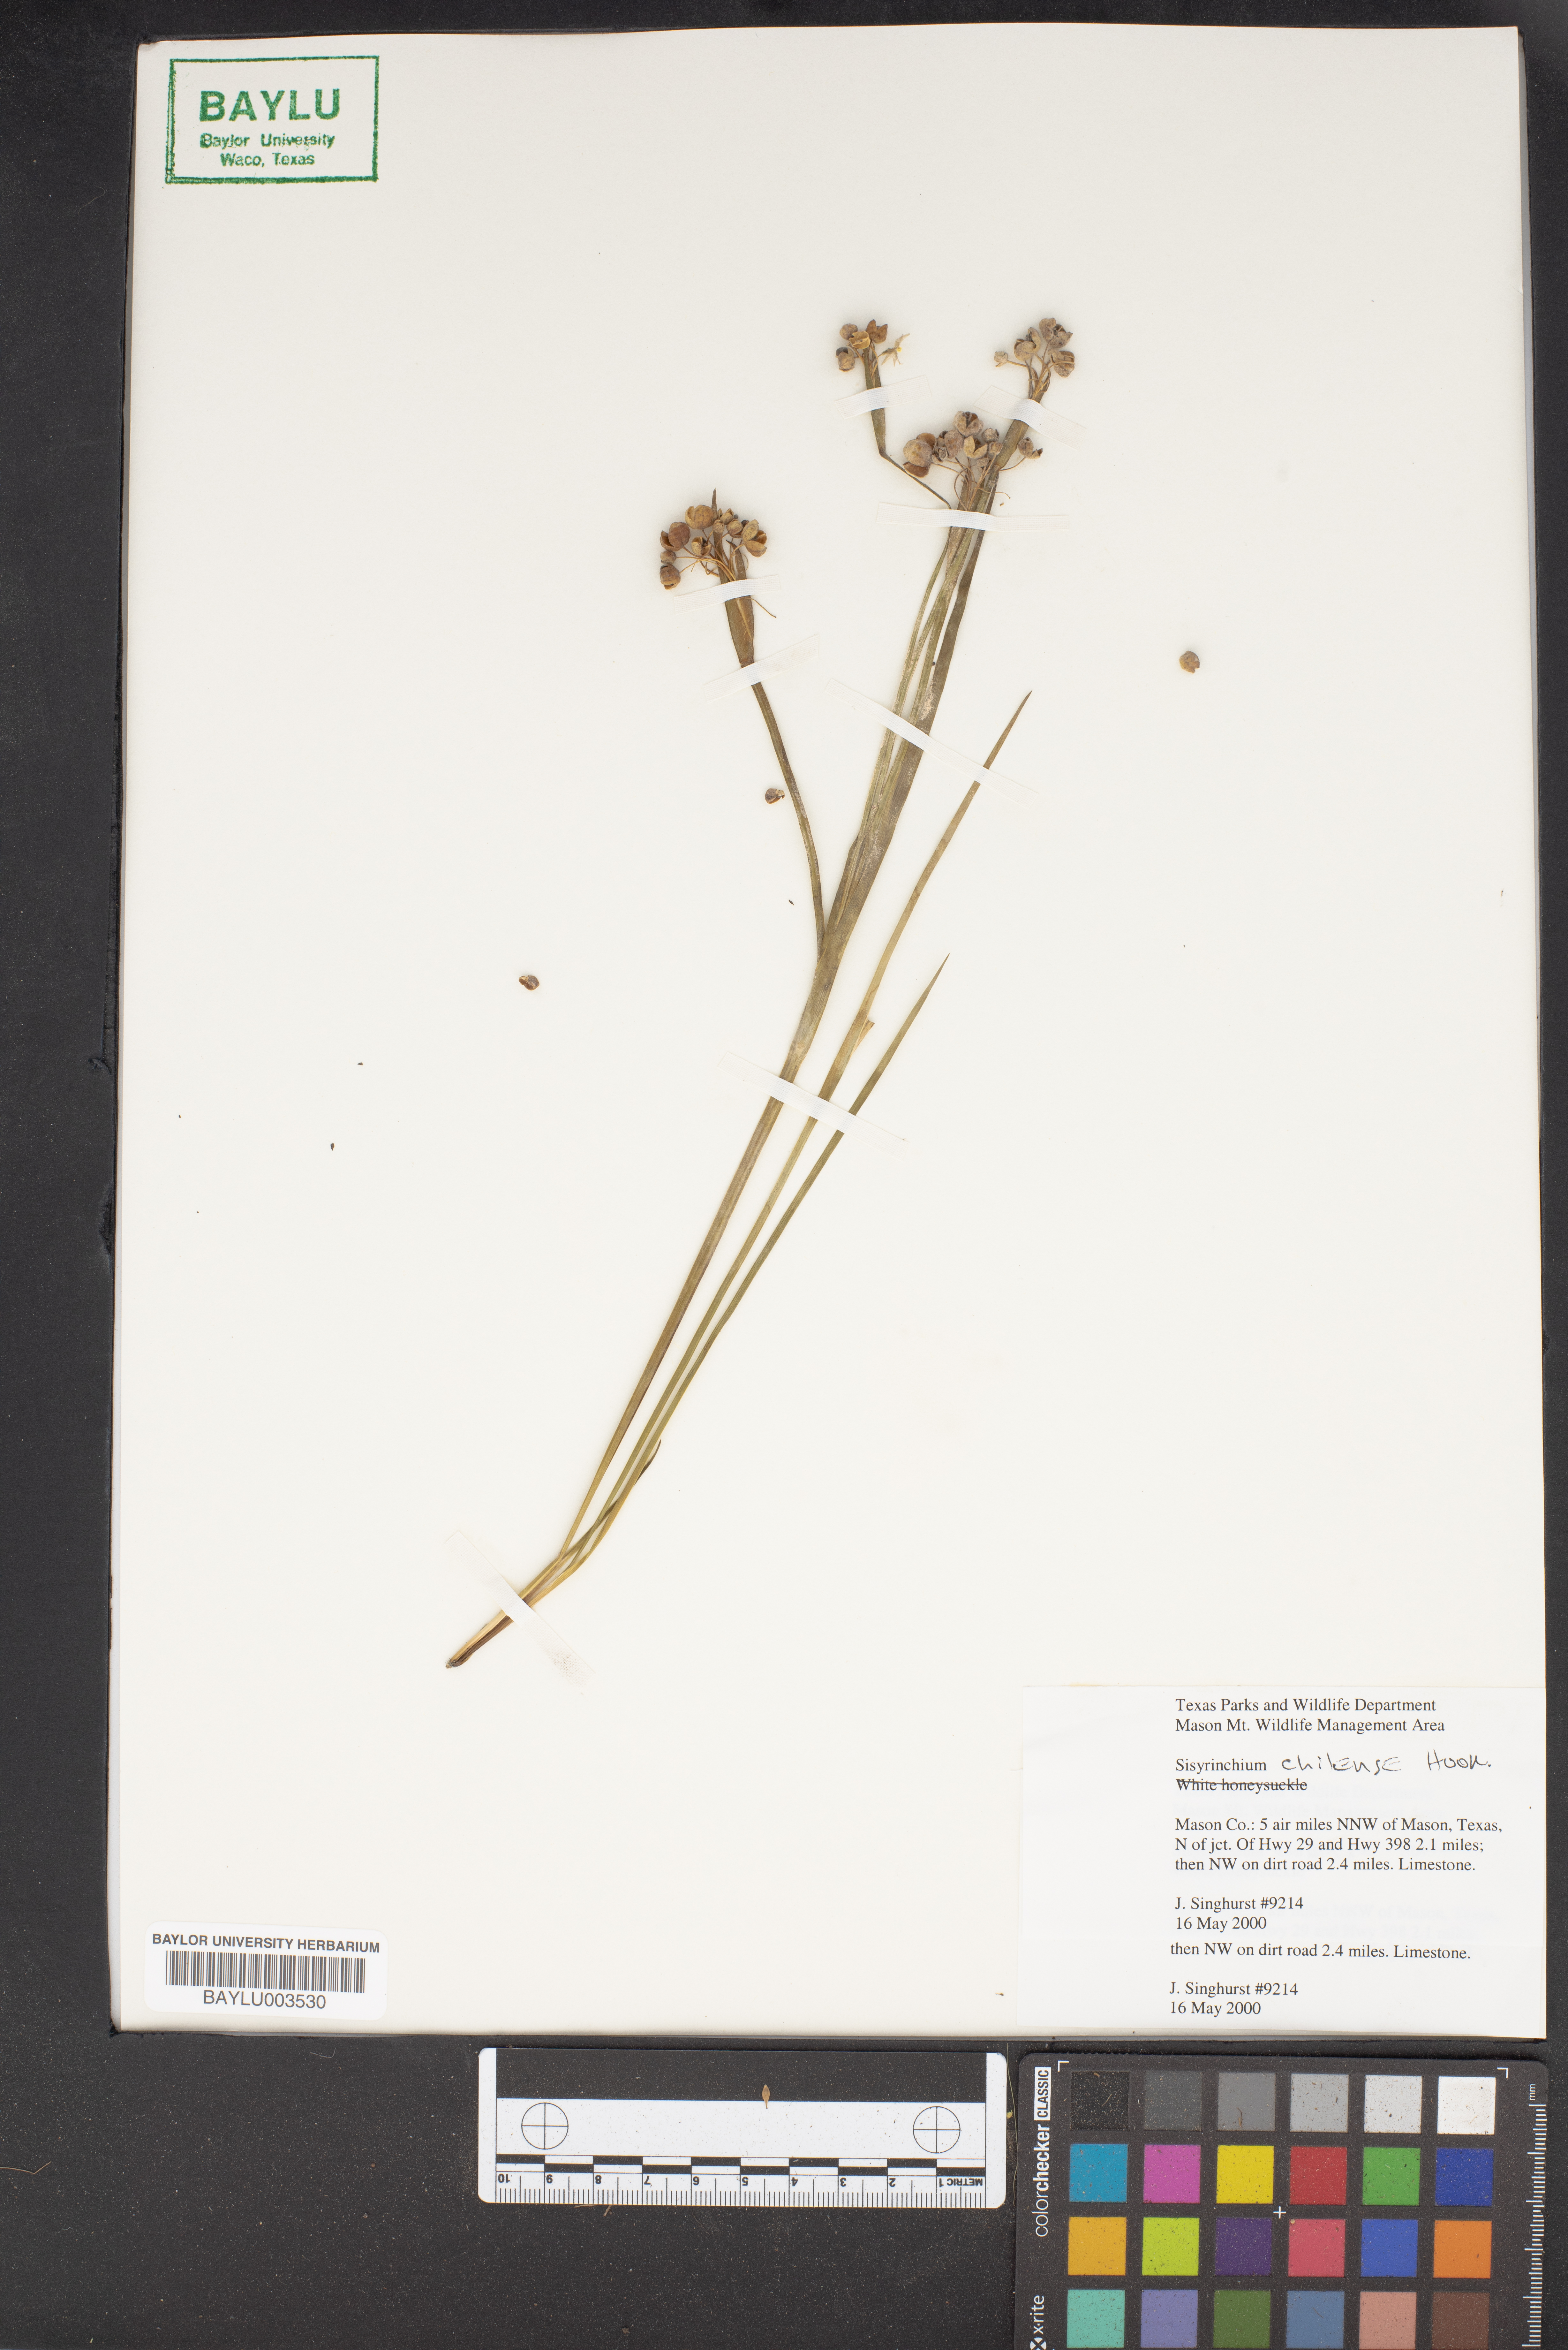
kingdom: Plantae
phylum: Tracheophyta
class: Liliopsida
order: Asparagales
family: Iridaceae
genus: Sisyrinchium
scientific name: Sisyrinchium chilense
